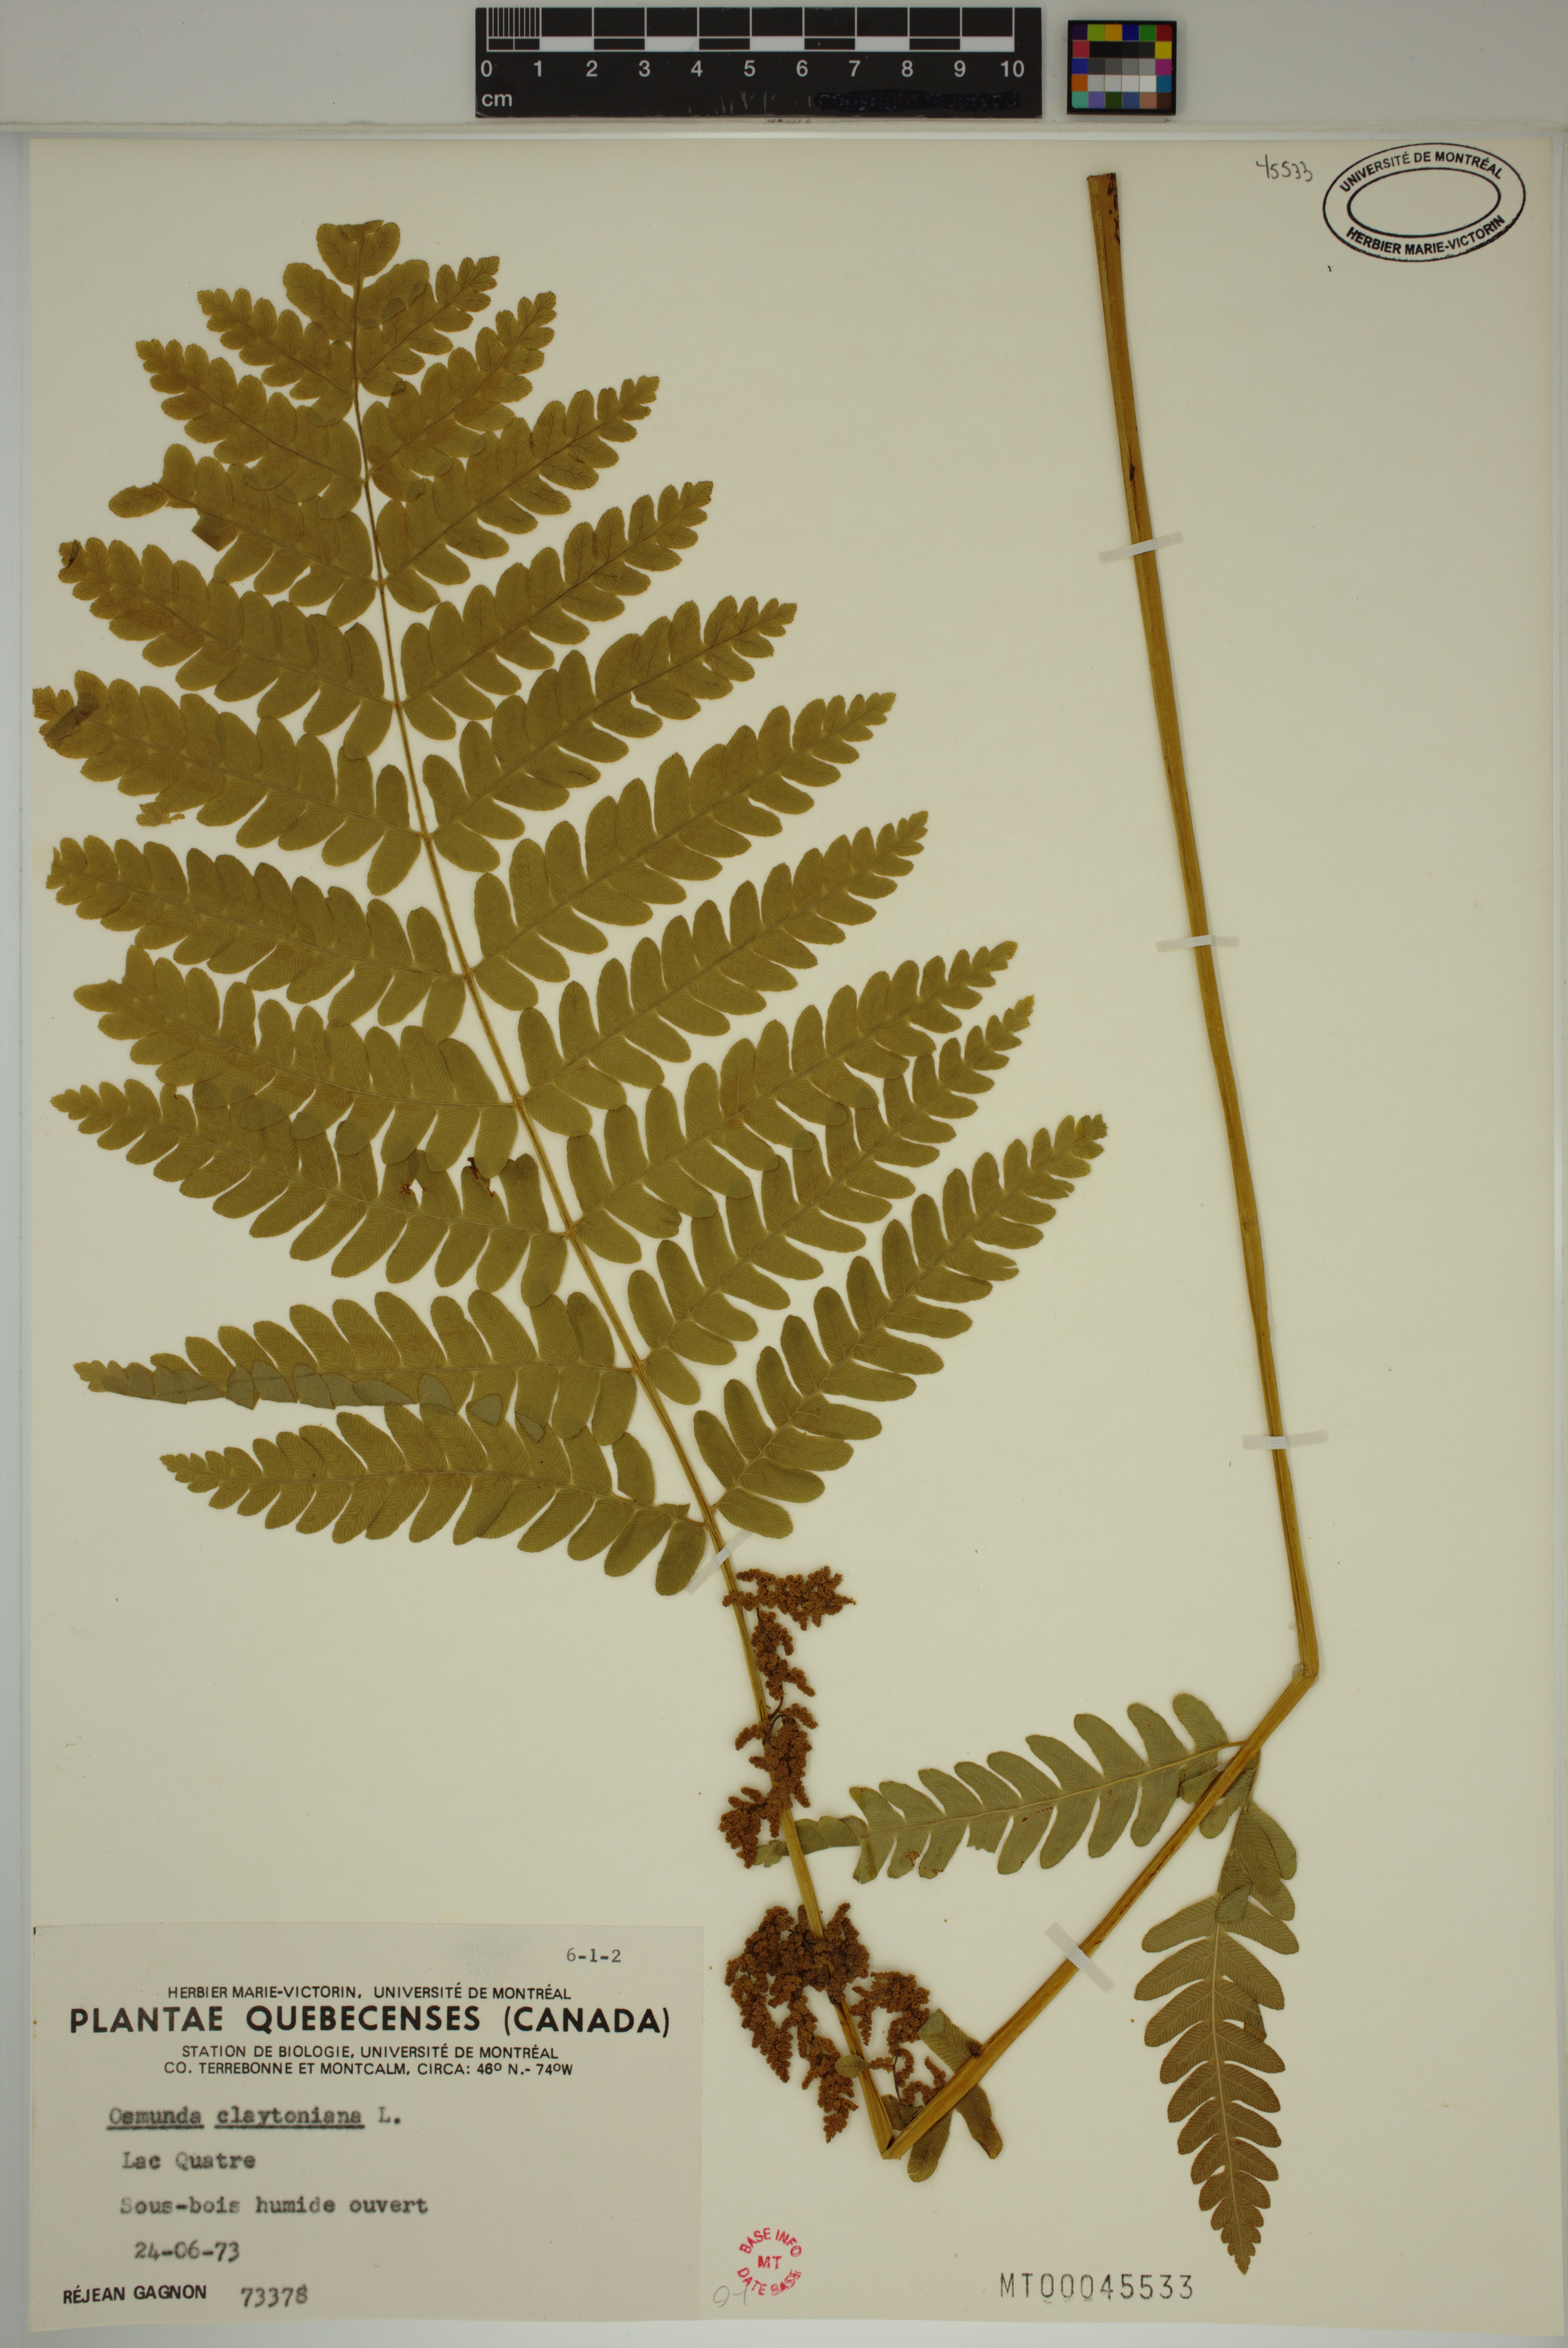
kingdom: Plantae
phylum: Tracheophyta
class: Polypodiopsida
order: Osmundales
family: Osmundaceae
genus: Claytosmunda
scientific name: Claytosmunda claytoniana
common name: Clayton's fern
